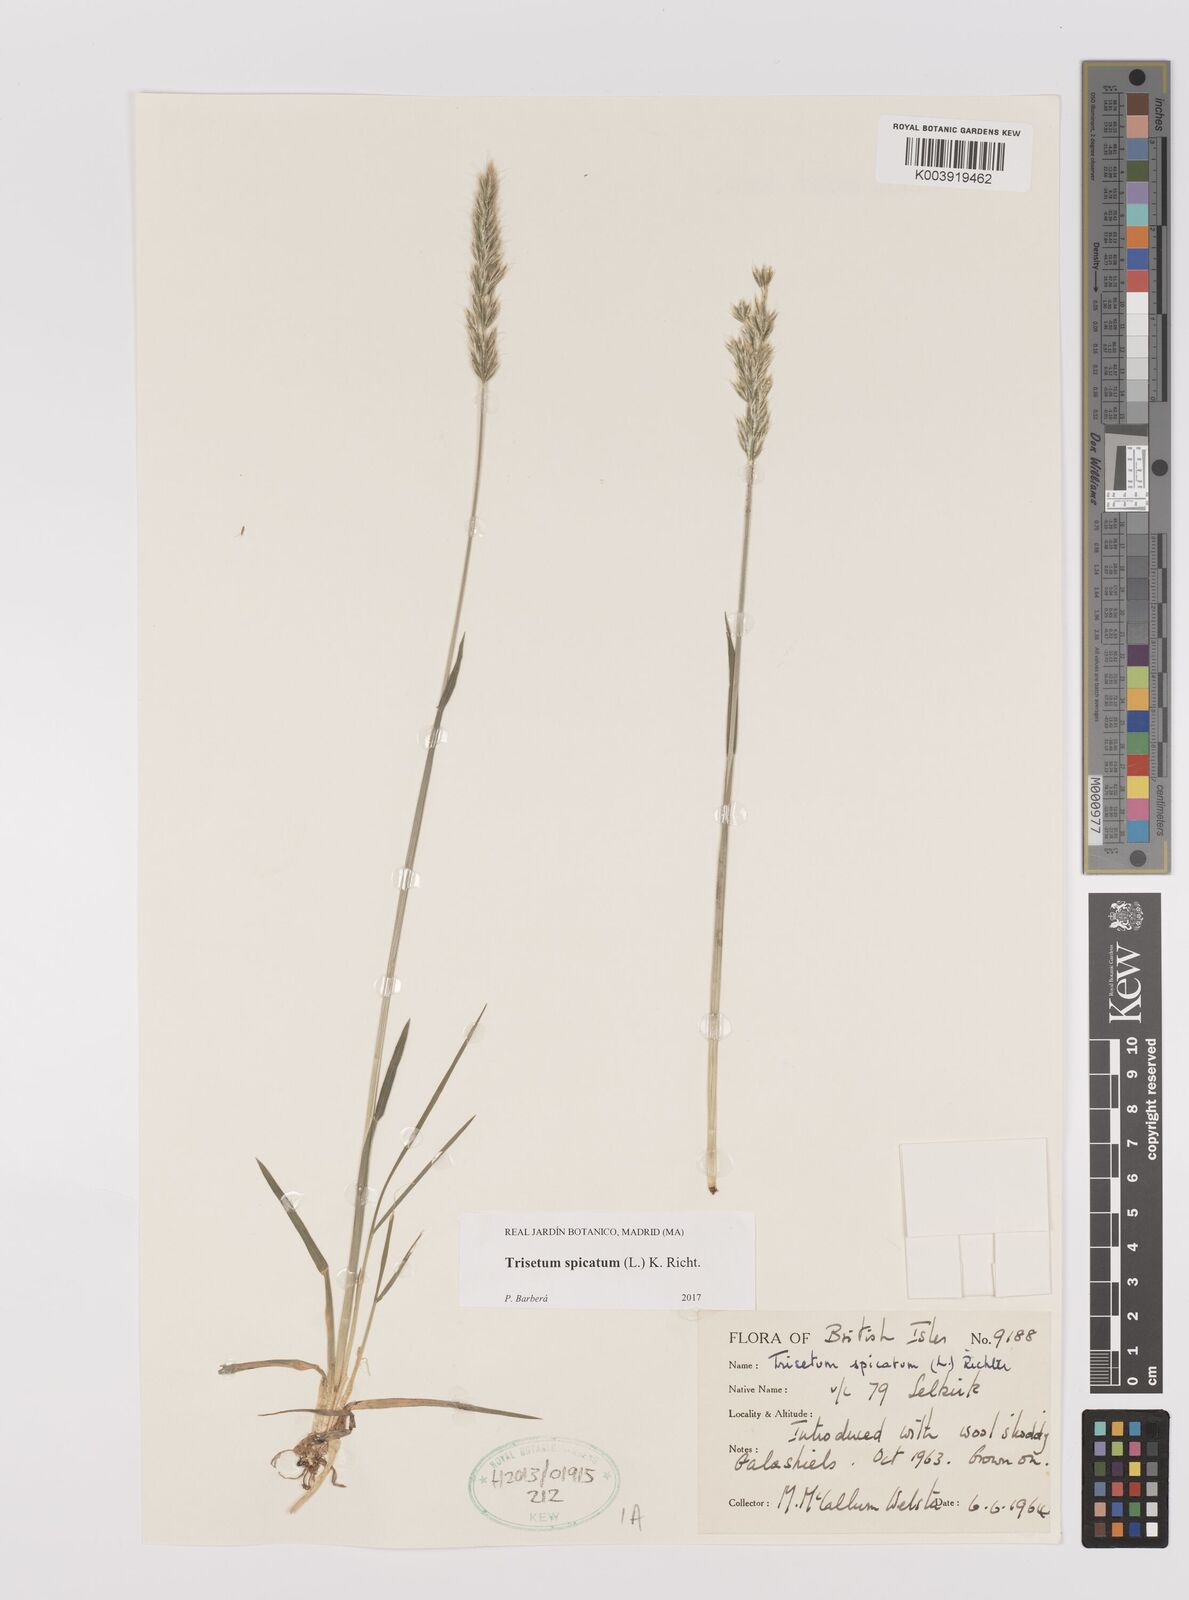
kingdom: Plantae
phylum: Tracheophyta
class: Liliopsida
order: Poales
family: Poaceae
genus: Koeleria
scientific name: Koeleria spicata
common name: Mountain trisetum
